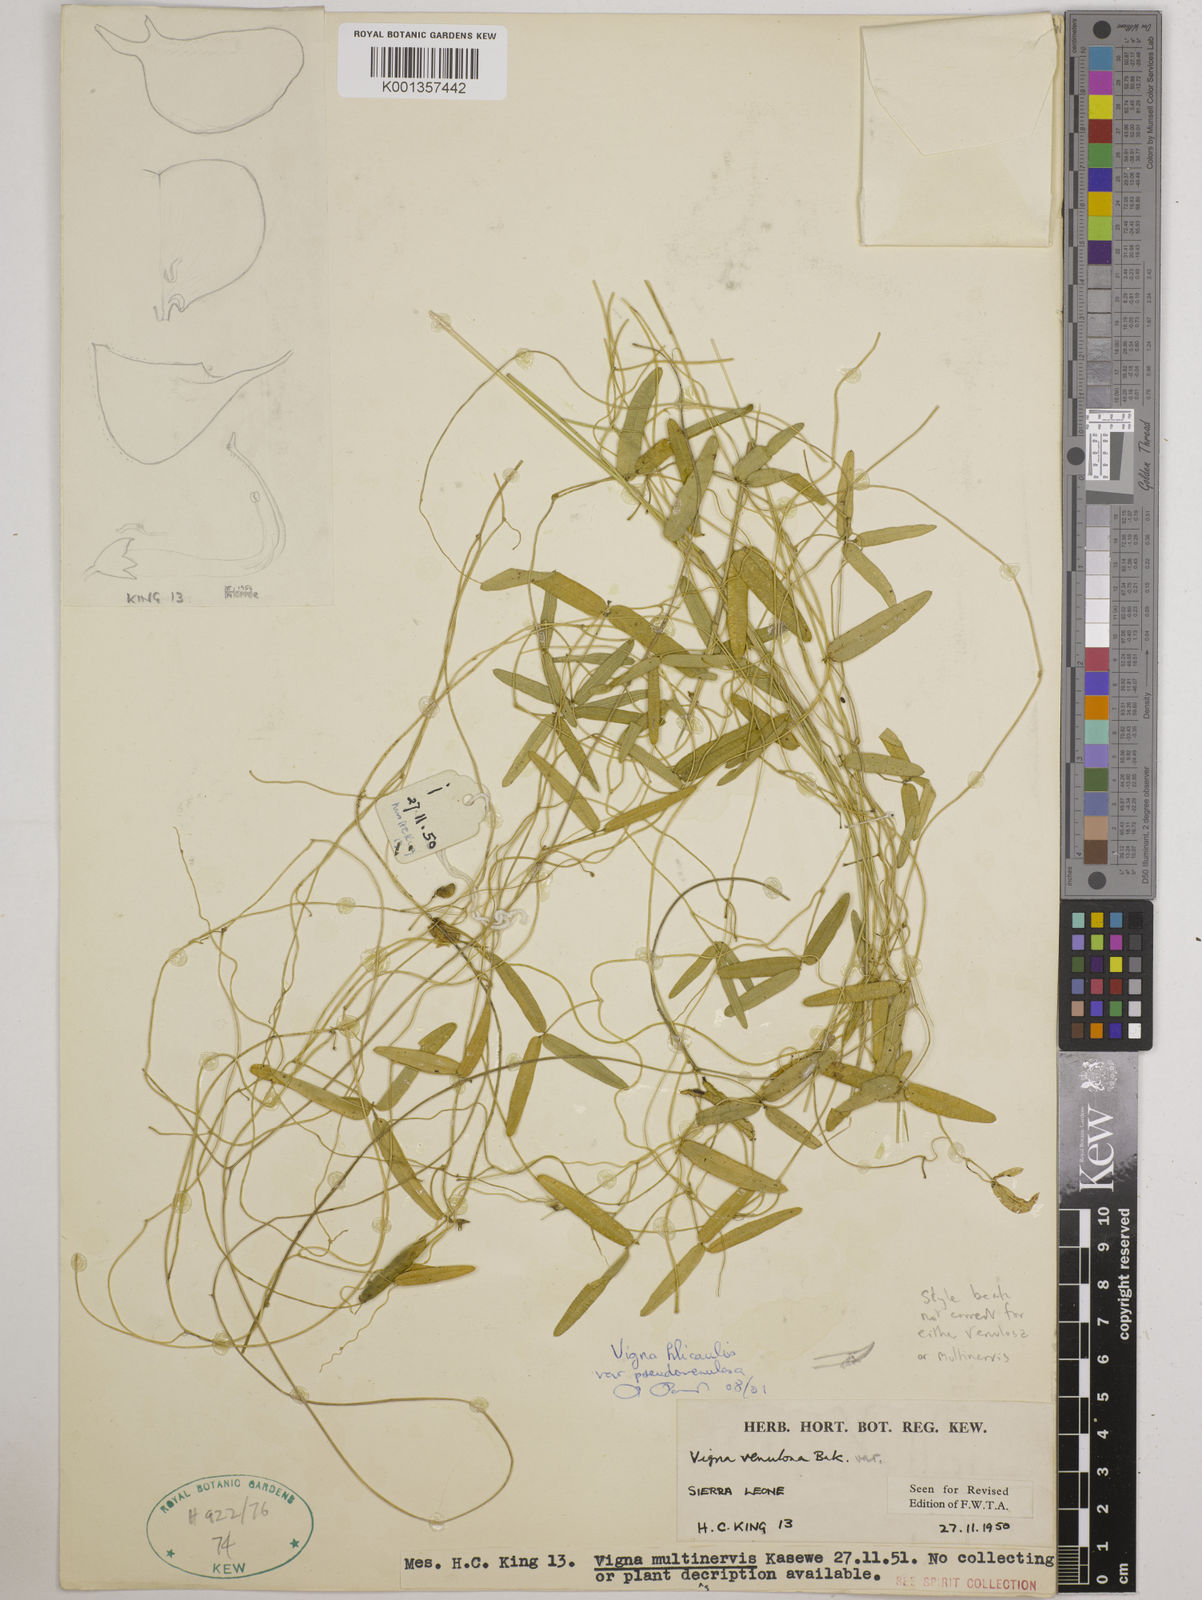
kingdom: Plantae
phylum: Tracheophyta
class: Magnoliopsida
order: Fabales
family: Fabaceae
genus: Vigna
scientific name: Vigna filicaulis
